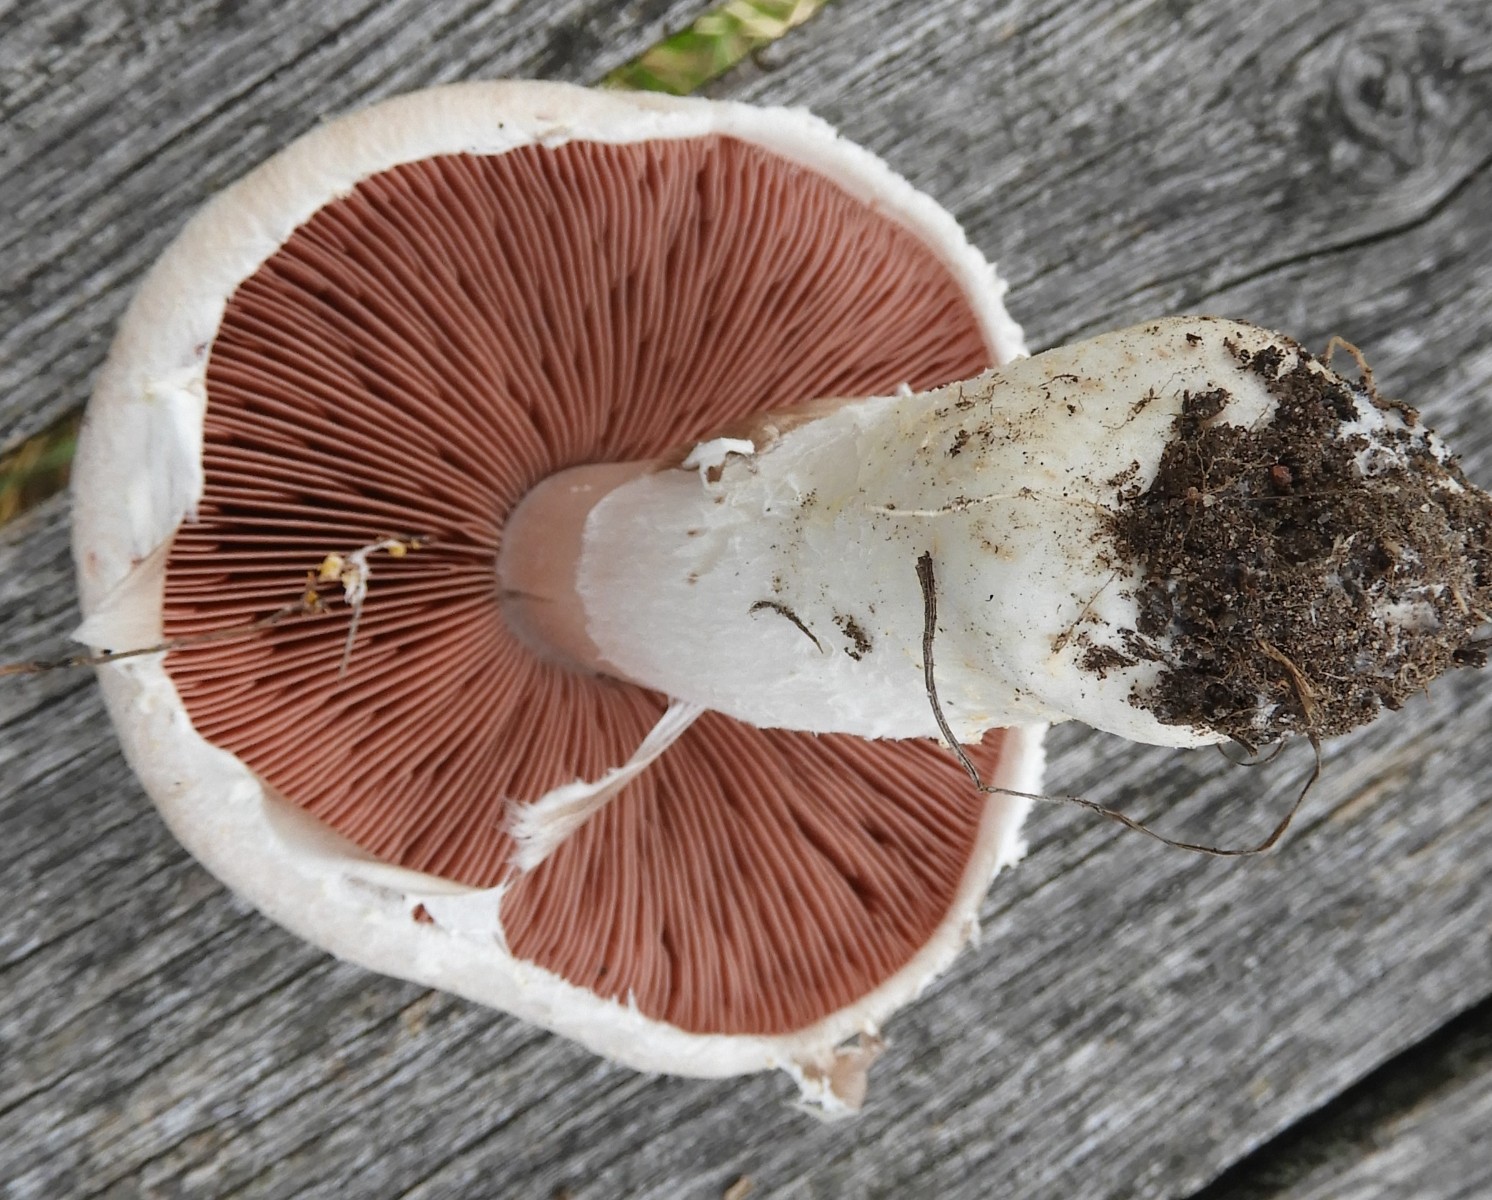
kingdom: Fungi
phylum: Basidiomycota
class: Agaricomycetes
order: Agaricales
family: Agaricaceae
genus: Agaricus
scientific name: Agaricus campestris
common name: mark-champignon
